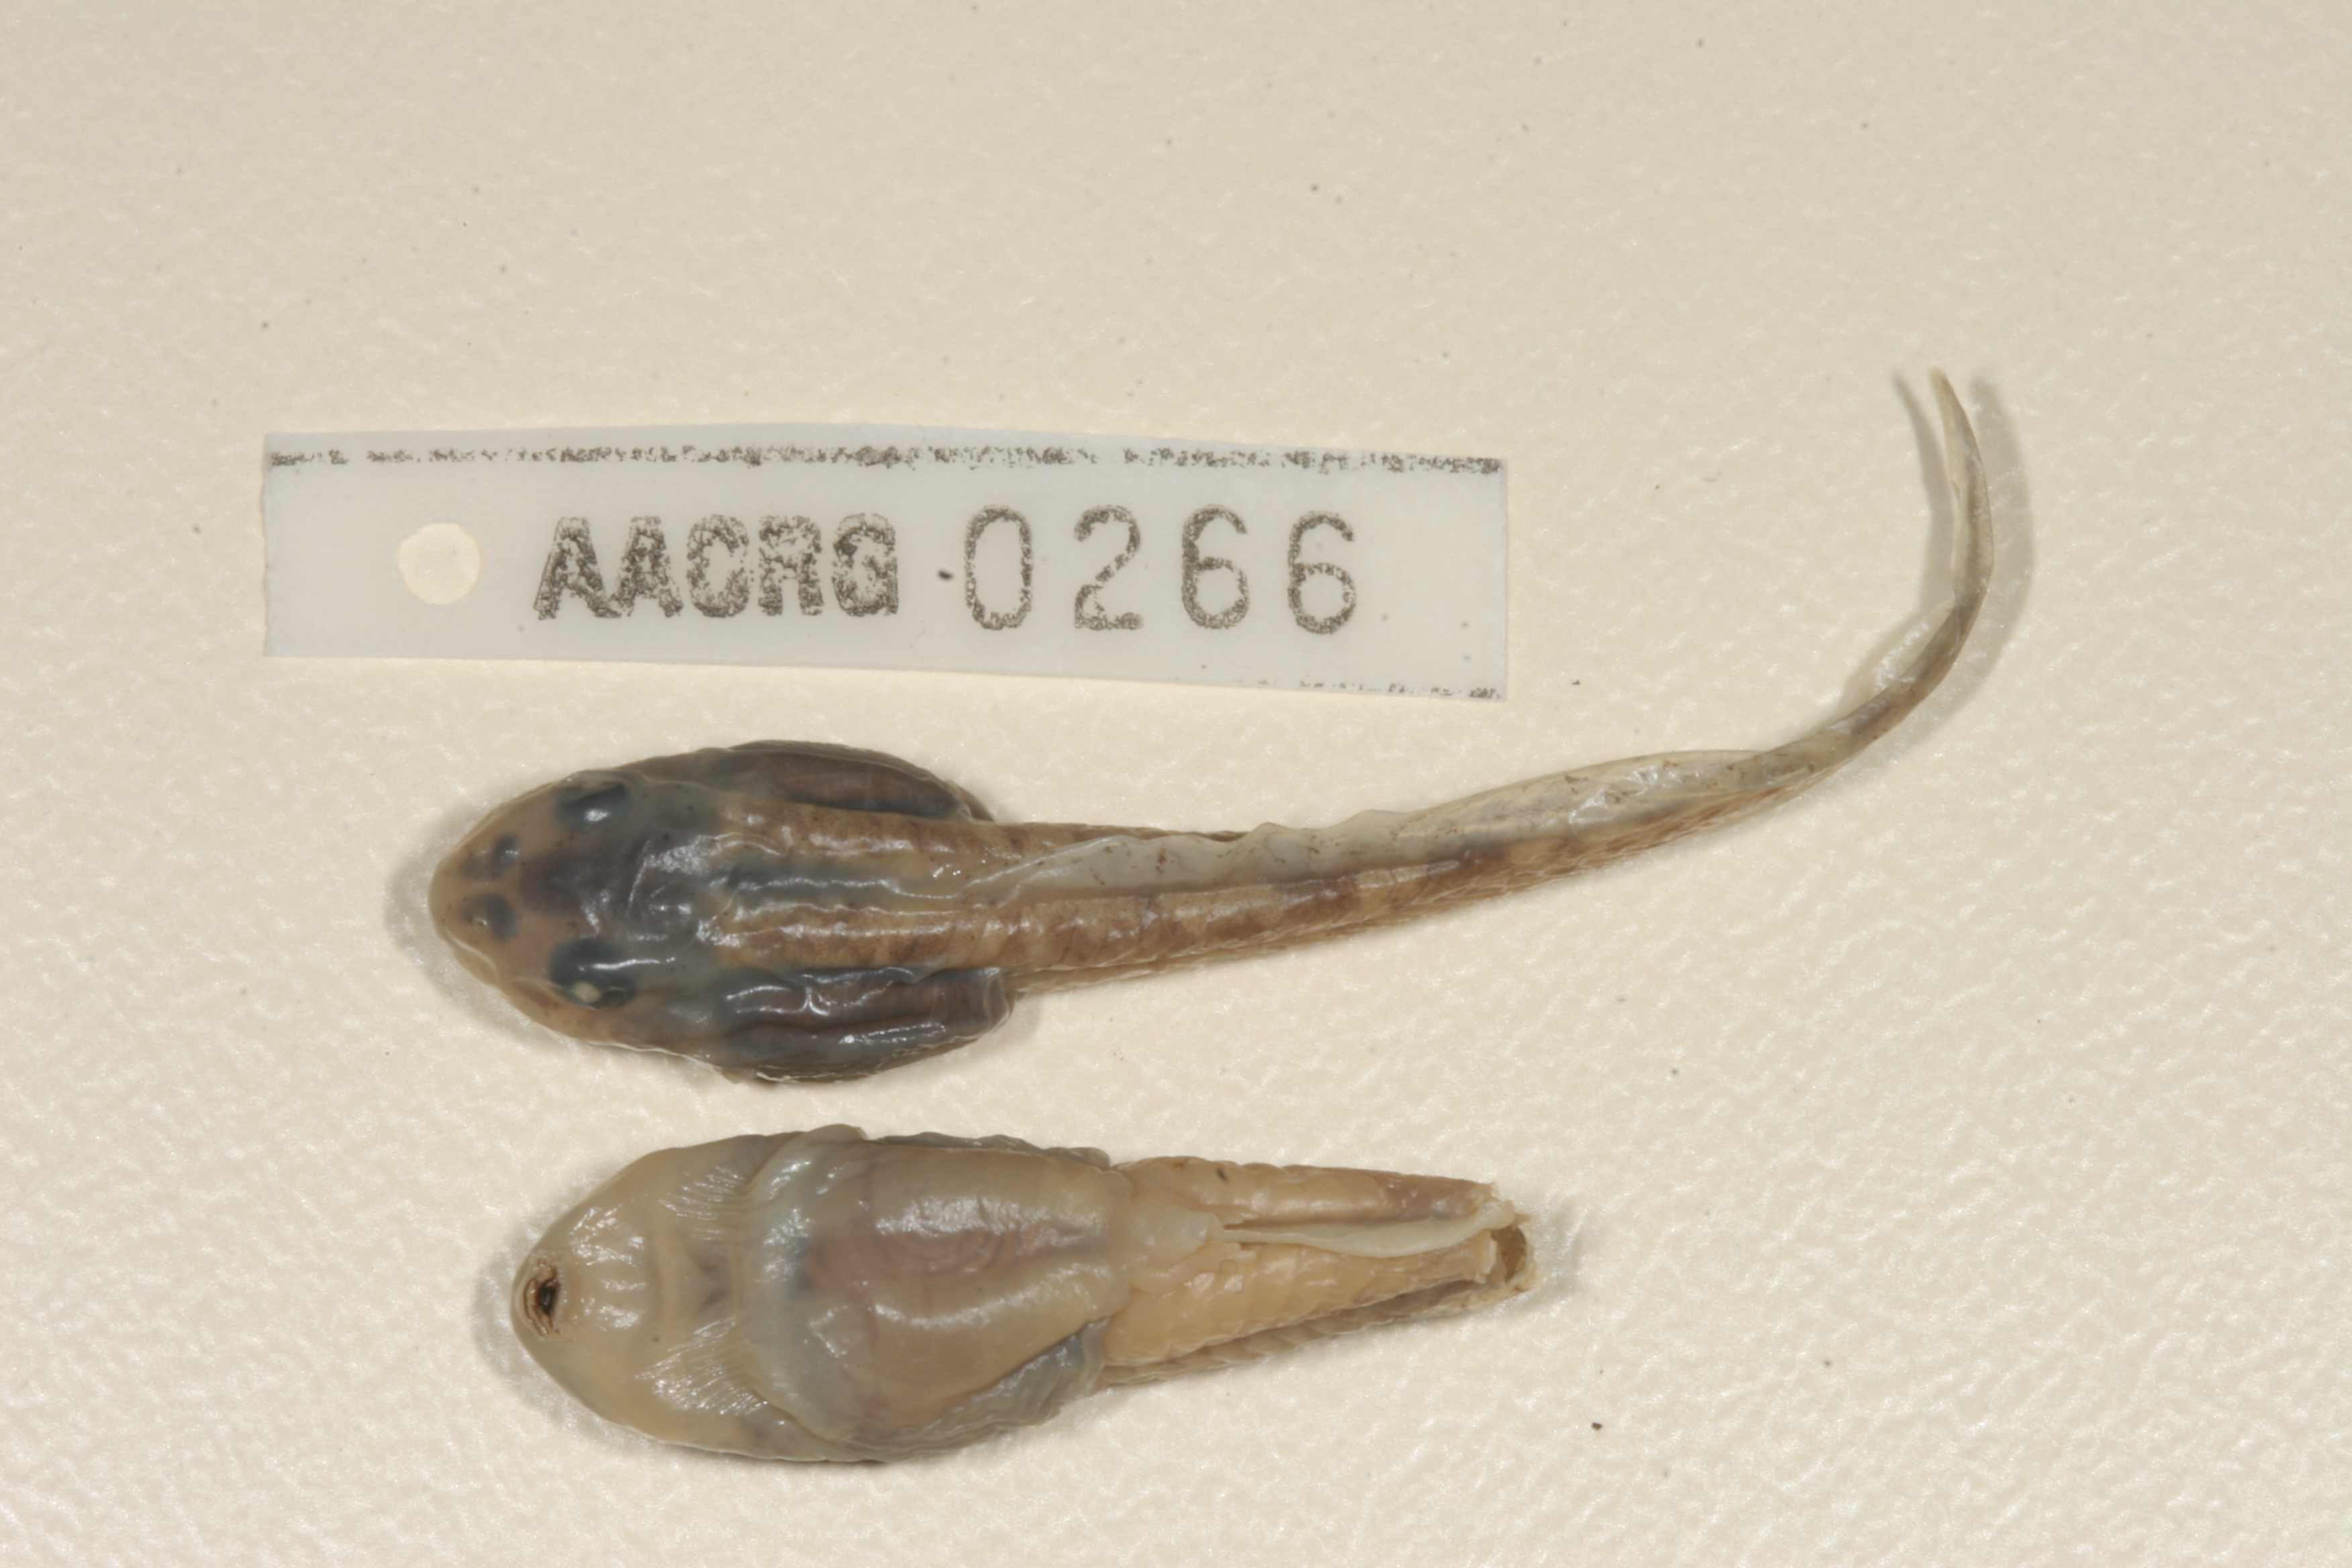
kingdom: Animalia
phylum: Chordata
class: Amphibia
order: Anura
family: Pyxicephalidae
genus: Amietia
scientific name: Amietia fuscigula
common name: Cape rana
